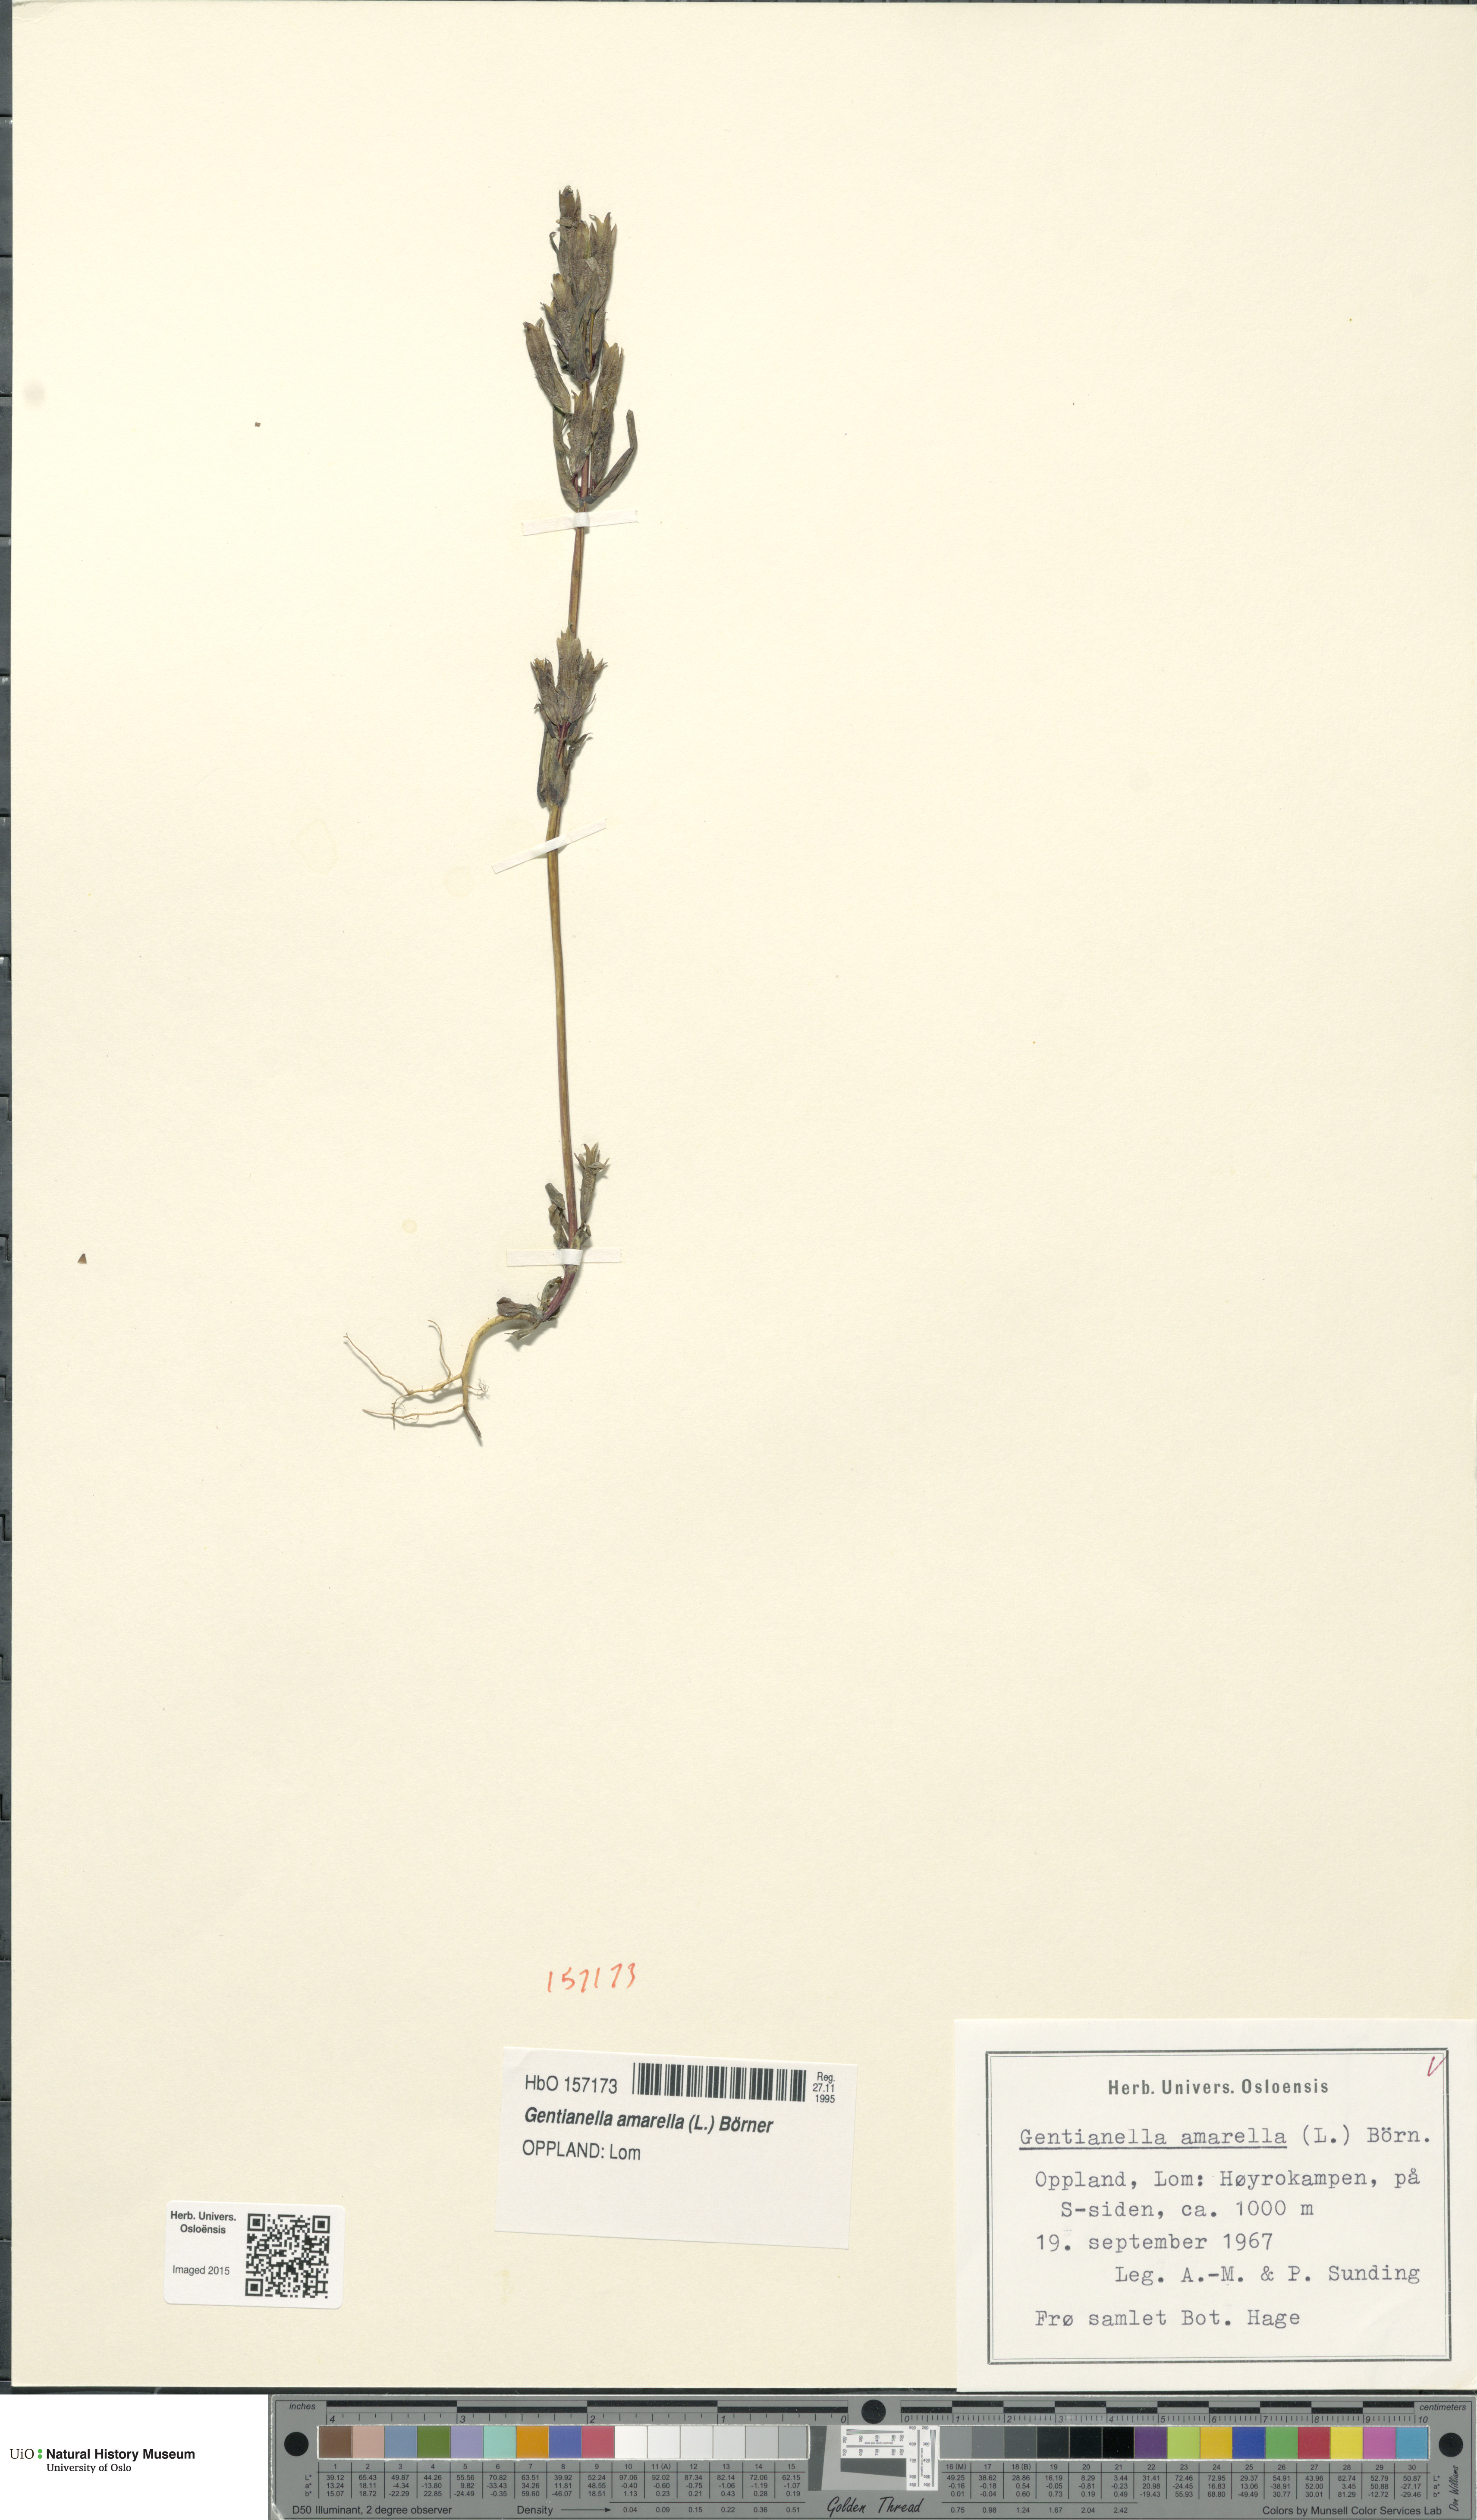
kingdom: Plantae
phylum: Tracheophyta
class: Magnoliopsida
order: Gentianales
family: Gentianaceae
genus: Gentianella
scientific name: Gentianella amarella
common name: Autumn gentian
